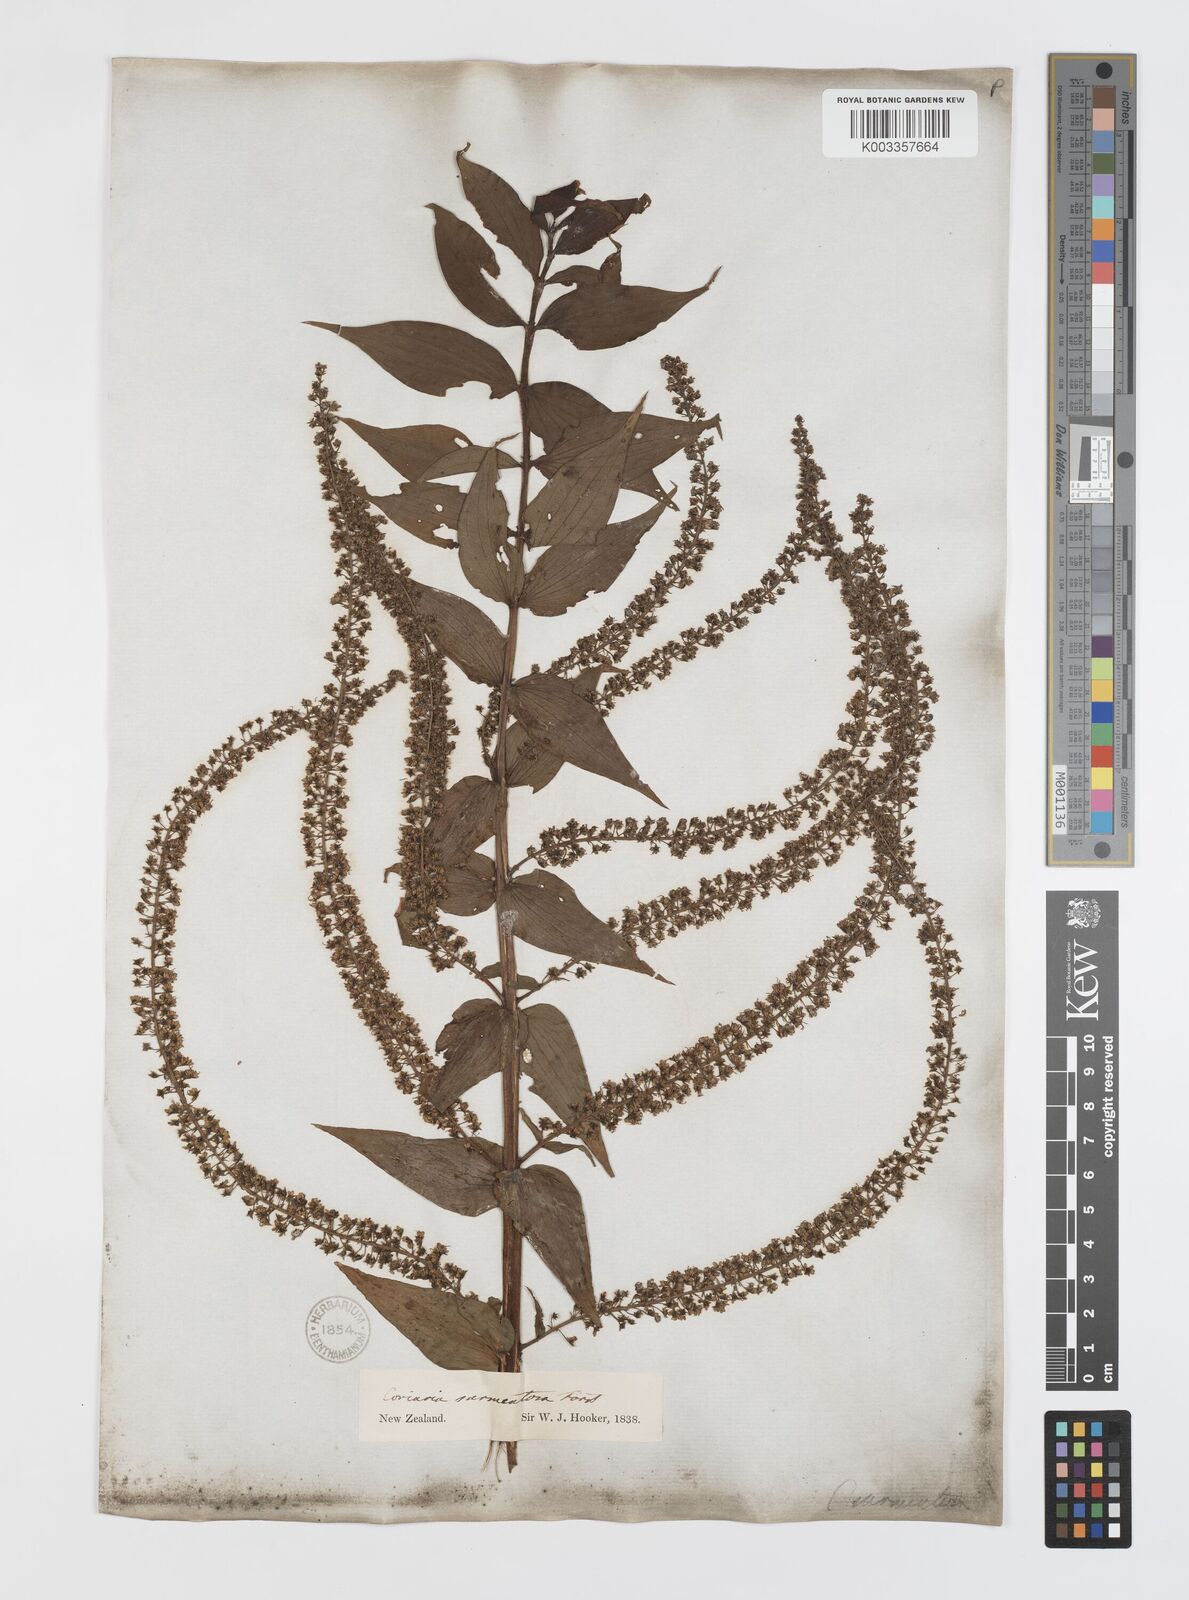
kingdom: Plantae
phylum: Tracheophyta
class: Magnoliopsida
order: Cucurbitales
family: Coriariaceae
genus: Coriaria
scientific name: Coriaria ruscifolia
